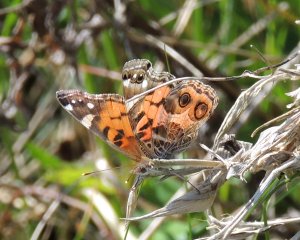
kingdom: Animalia
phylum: Arthropoda
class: Insecta
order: Lepidoptera
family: Nymphalidae
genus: Vanessa
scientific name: Vanessa virginiensis
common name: American Lady
